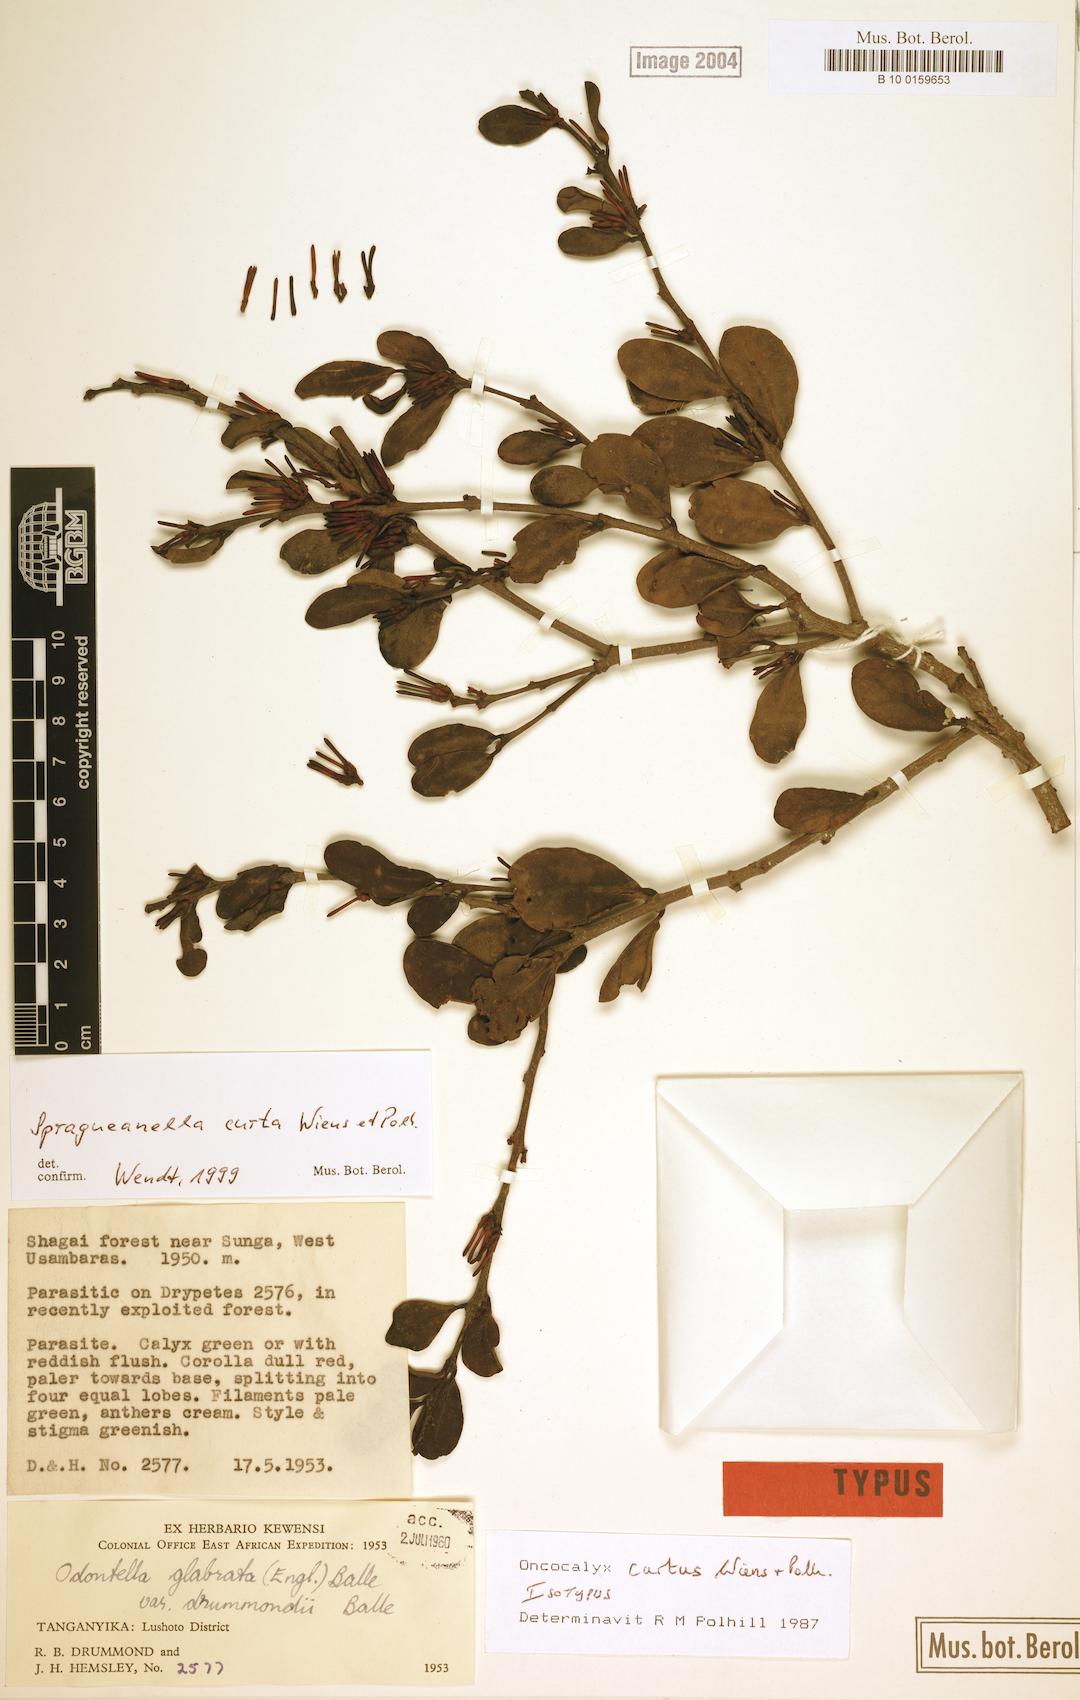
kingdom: Plantae
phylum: Tracheophyta
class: Magnoliopsida
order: Santalales
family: Loranthaceae
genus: Spragueanella
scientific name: Spragueanella curta
